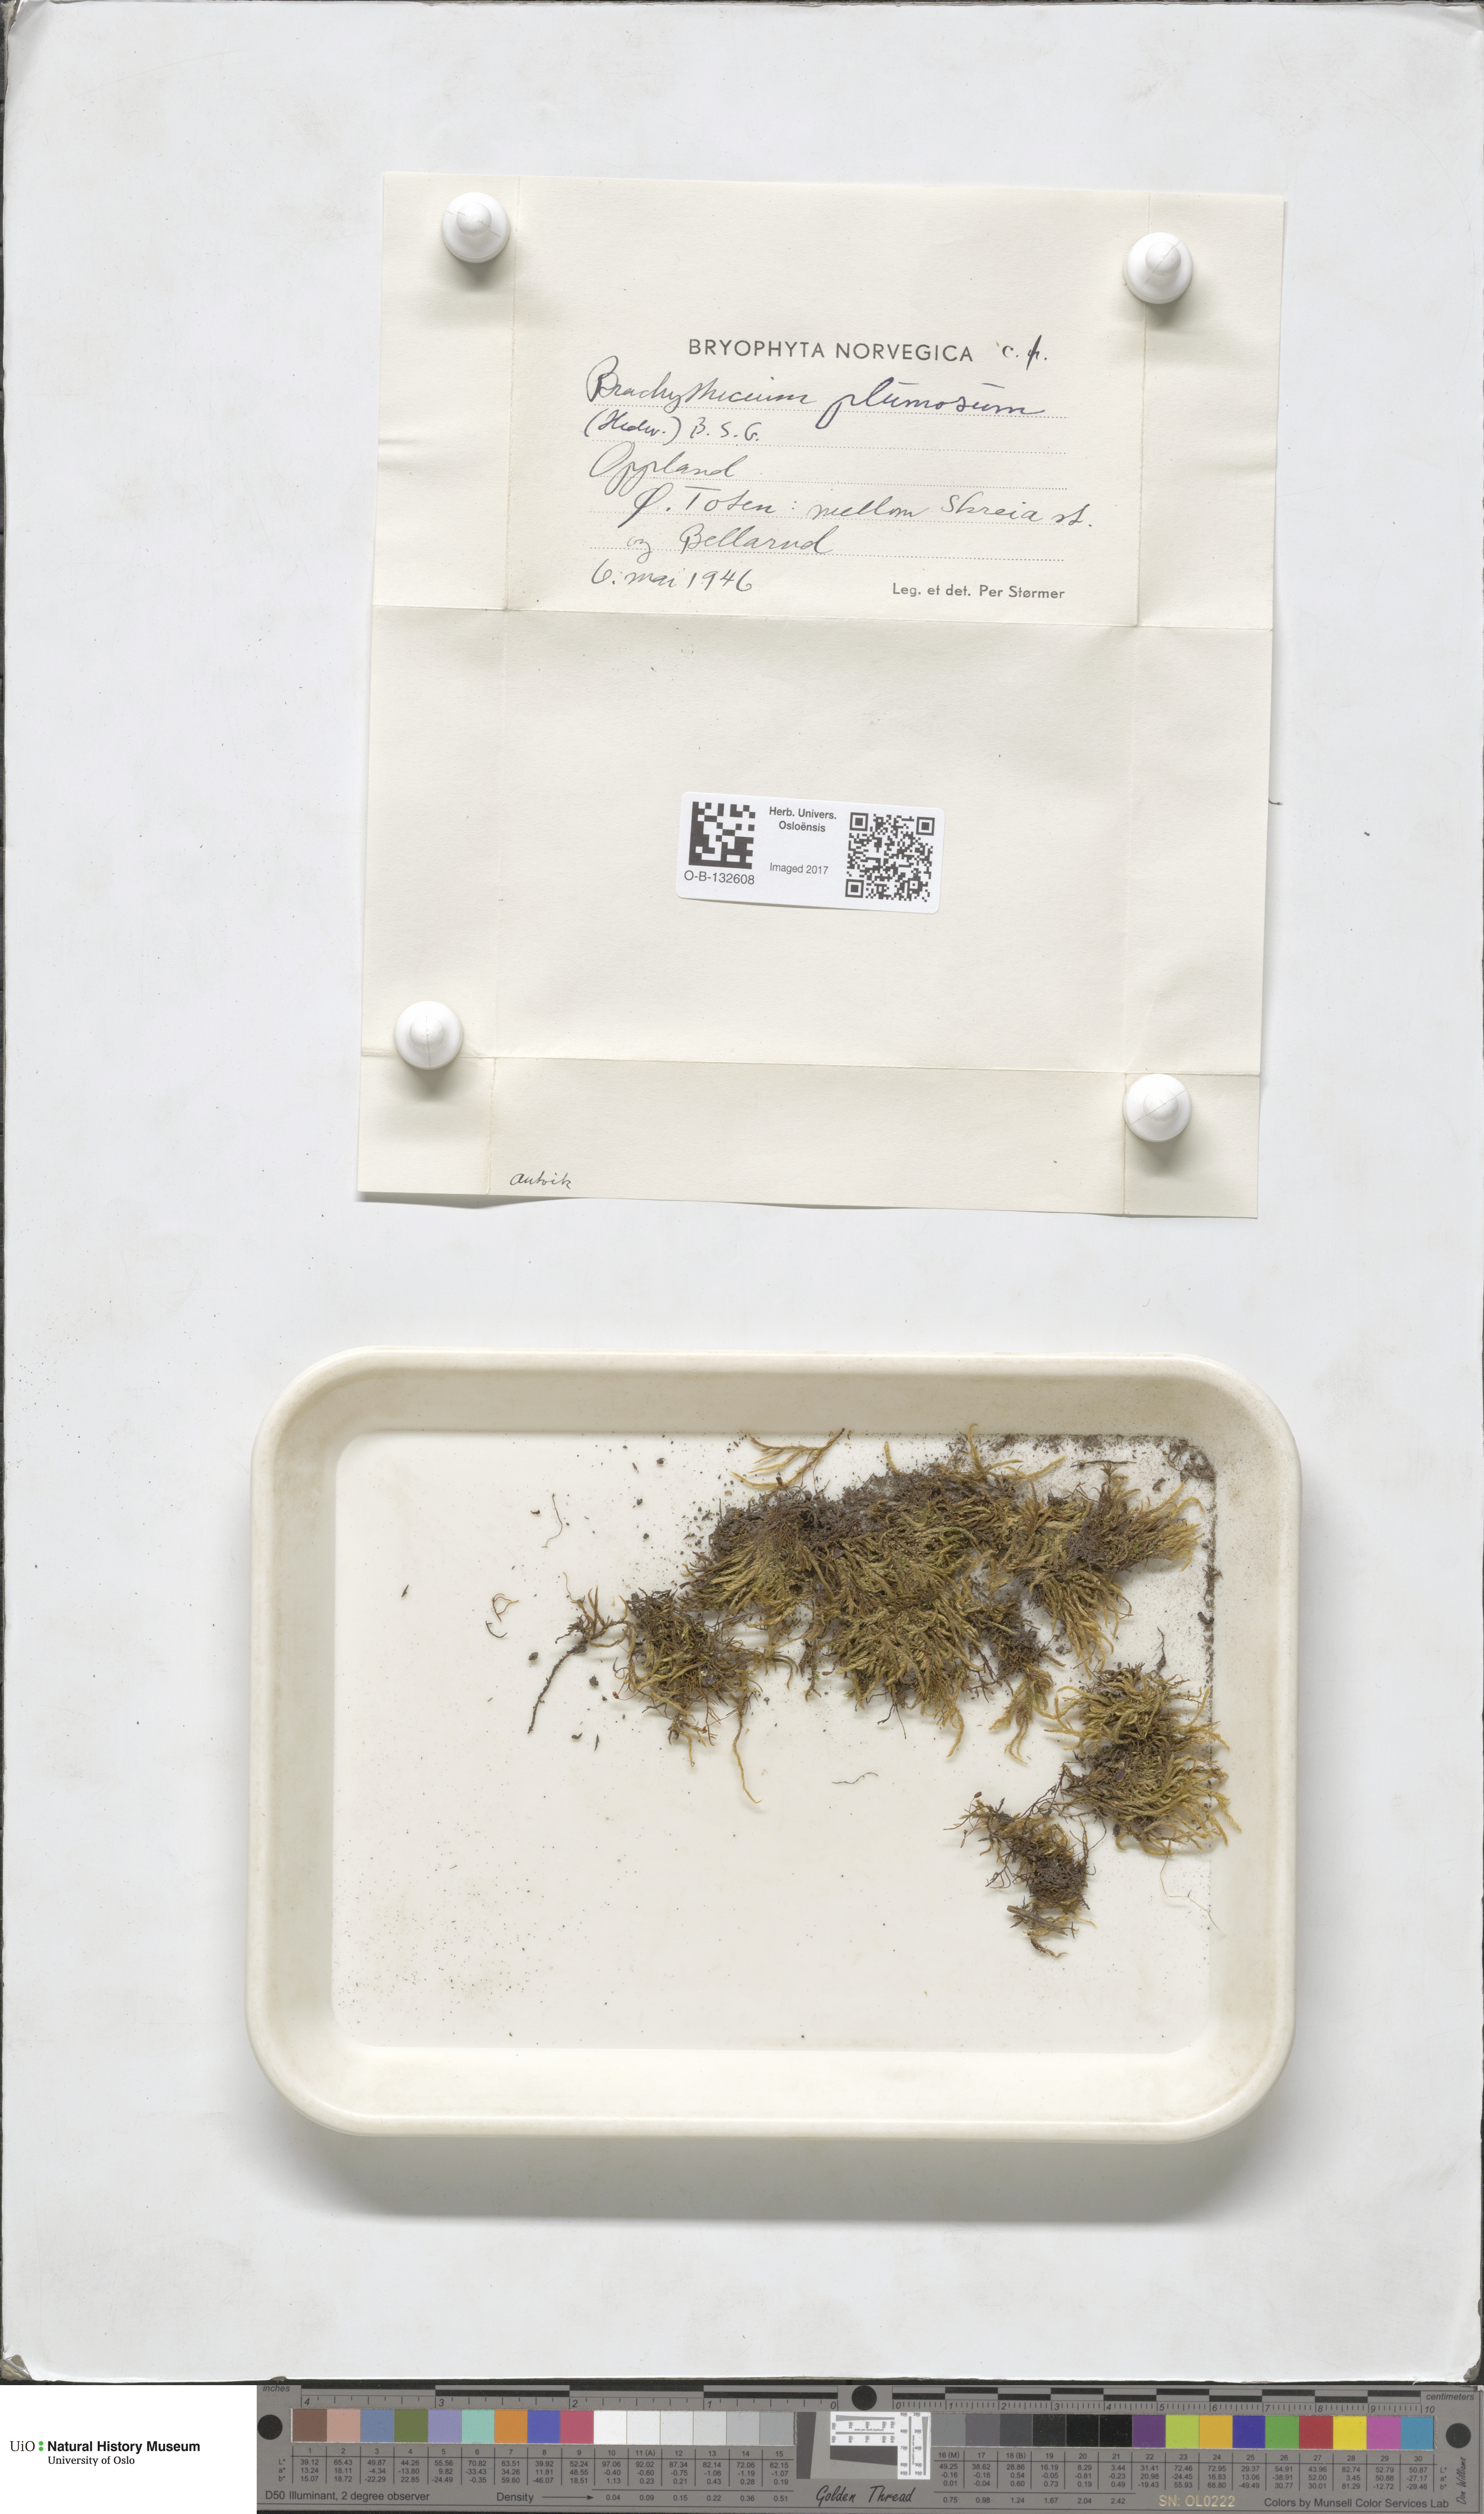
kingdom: Plantae
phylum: Bryophyta
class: Bryopsida
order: Hypnales
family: Brachytheciaceae
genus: Sciuro-hypnum
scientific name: Sciuro-hypnum plumosum
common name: Rusty feather-moss
